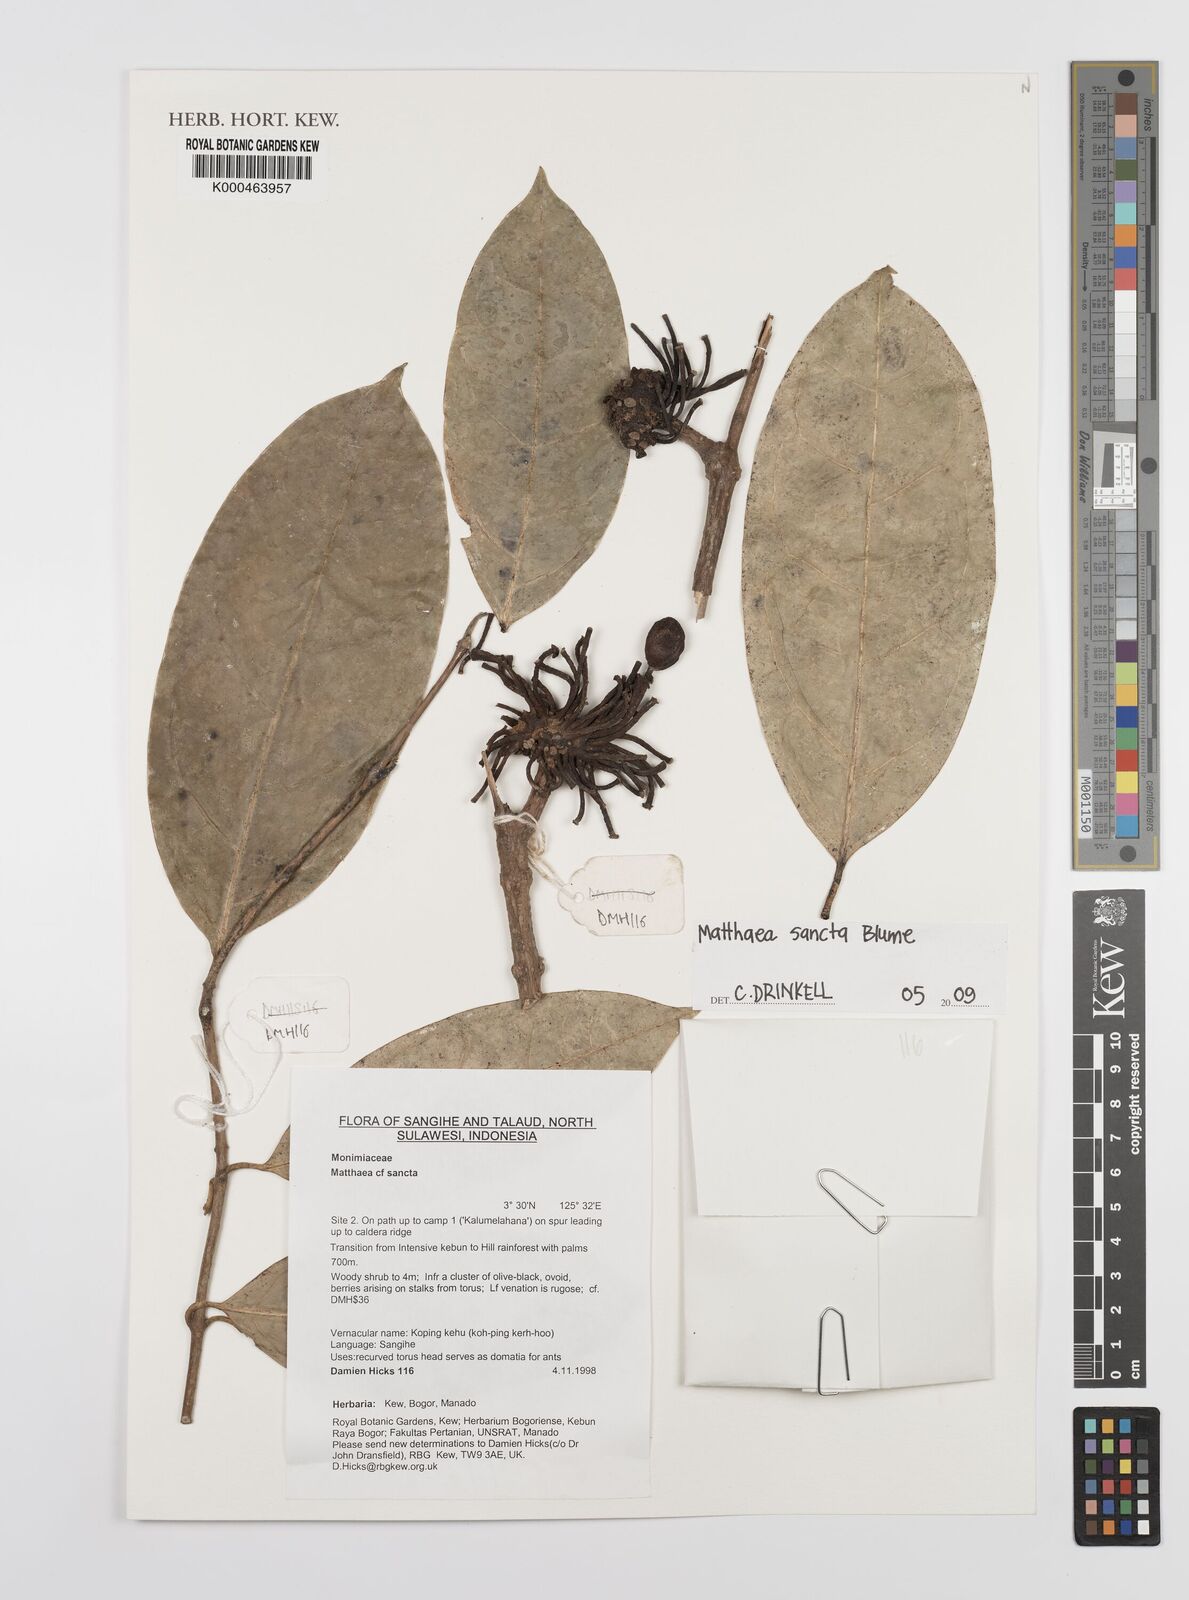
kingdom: Plantae
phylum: Tracheophyta
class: Magnoliopsida
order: Laurales
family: Monimiaceae
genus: Matthaea
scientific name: Matthaea sancta
